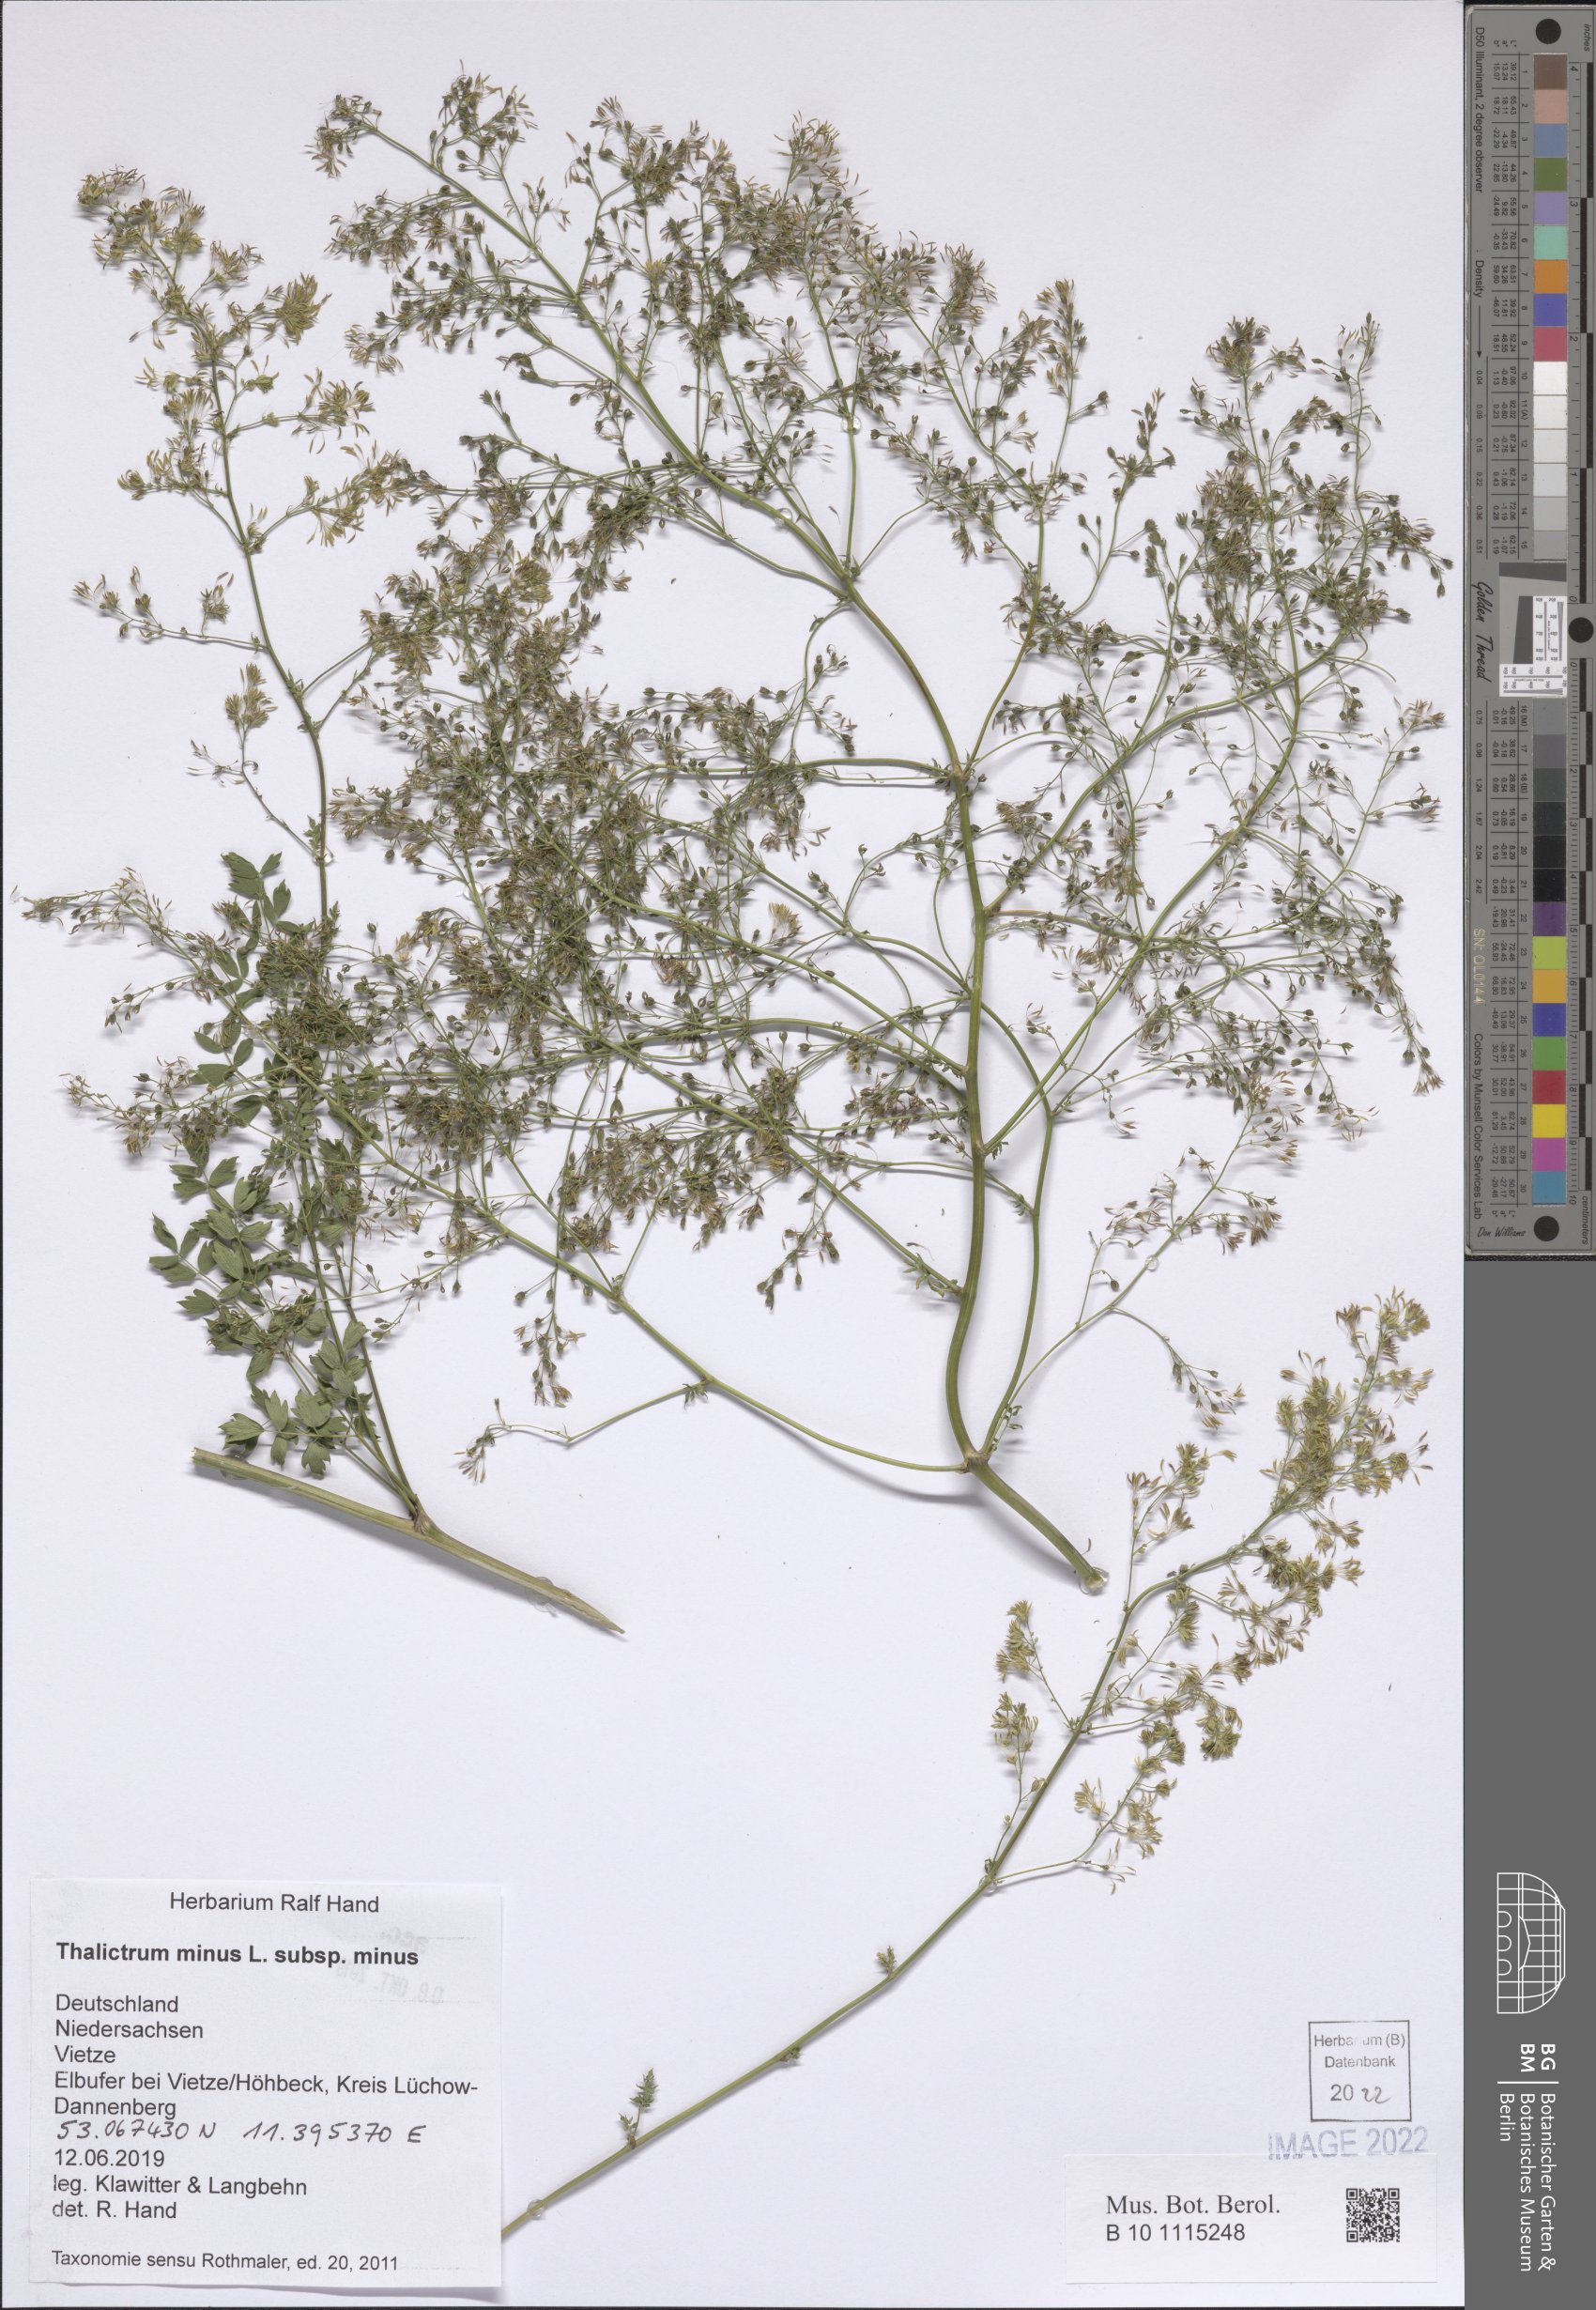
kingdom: Plantae
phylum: Tracheophyta
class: Magnoliopsida
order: Ranunculales
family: Ranunculaceae
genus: Thalictrum
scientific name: Thalictrum minus
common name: Lesser meadow-rue
